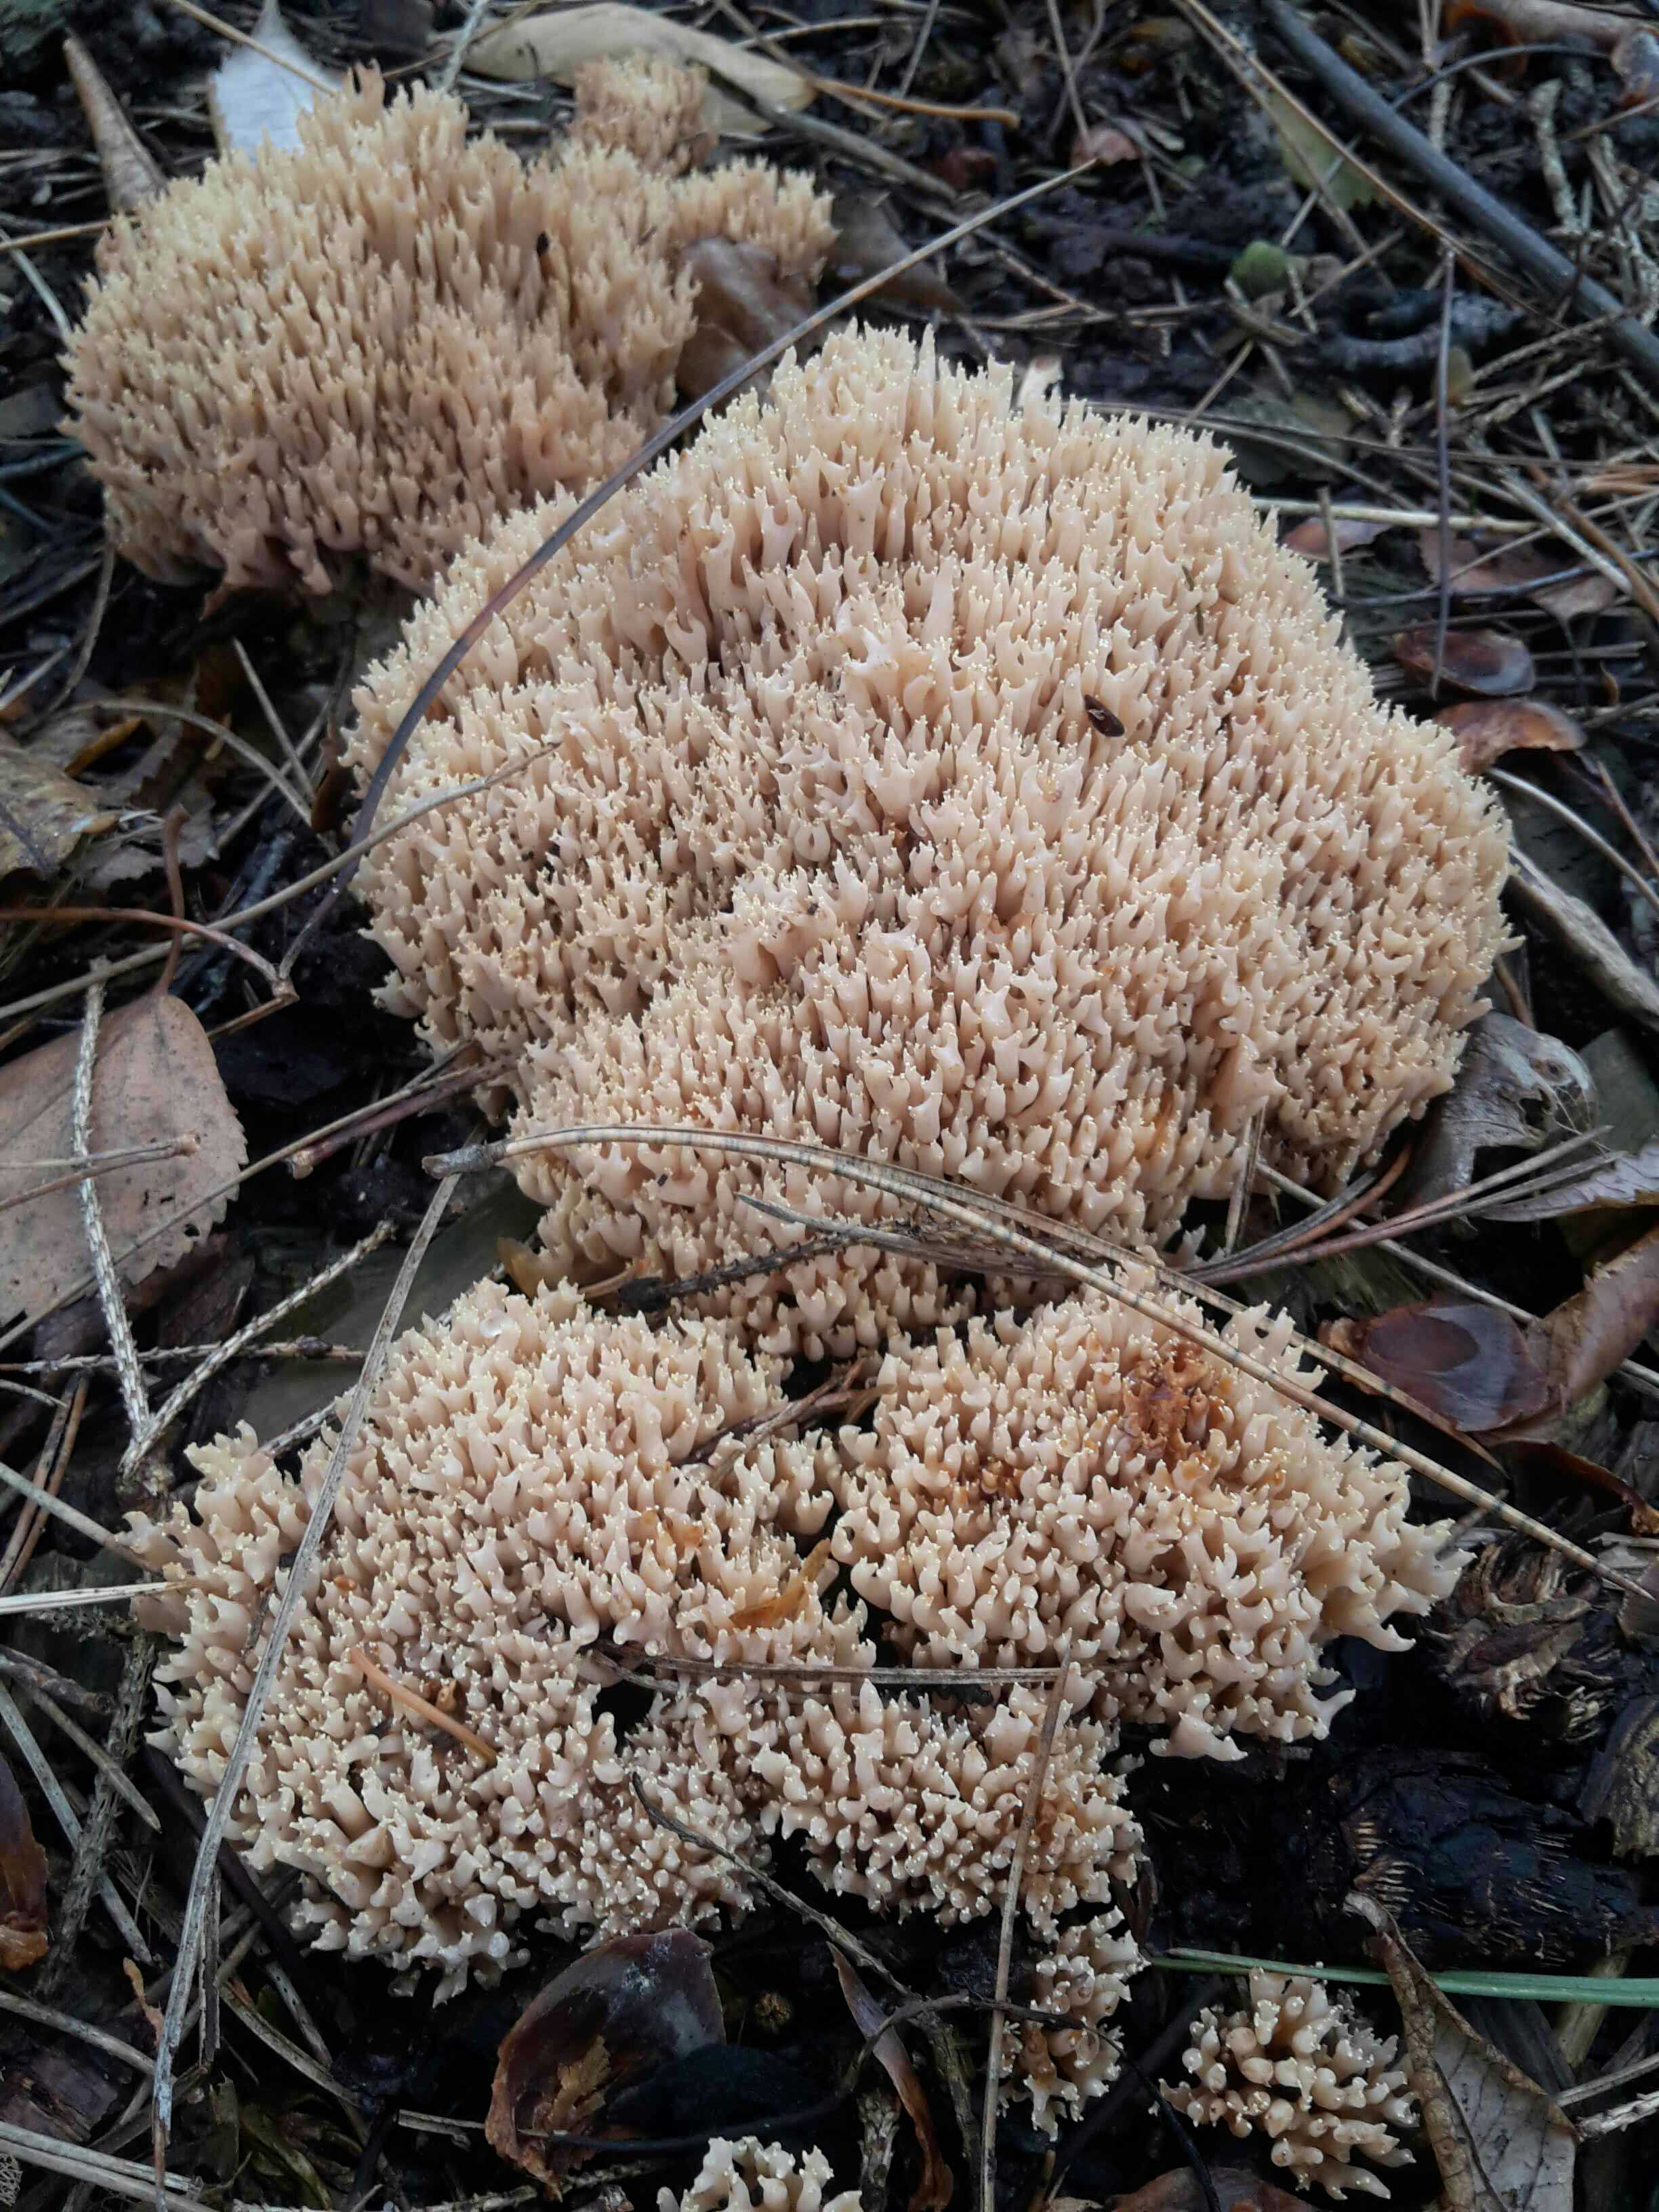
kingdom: Fungi
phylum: Basidiomycota
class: Agaricomycetes
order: Gomphales
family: Gomphaceae
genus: Ramaria
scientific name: Ramaria stricta
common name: rank koralsvamp
